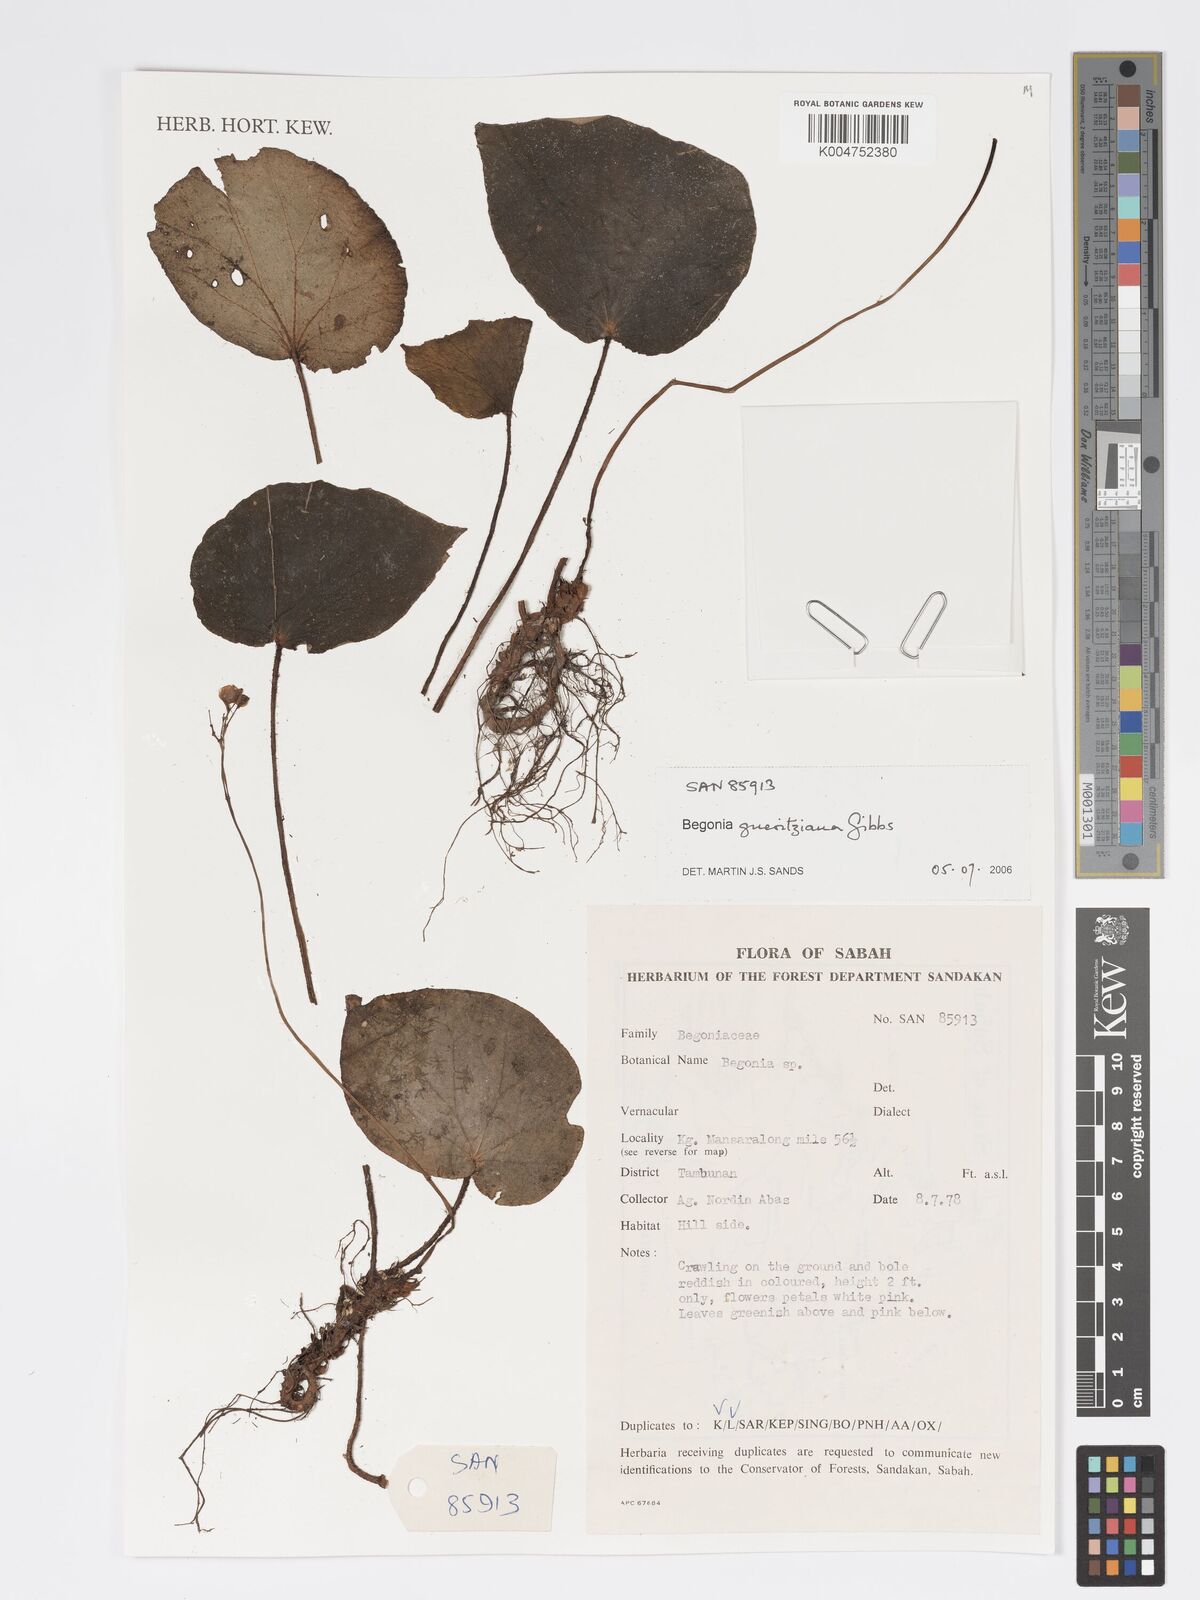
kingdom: Plantae
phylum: Tracheophyta
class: Magnoliopsida
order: Cucurbitales
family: Begoniaceae
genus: Begonia
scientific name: Begonia gueritziana
